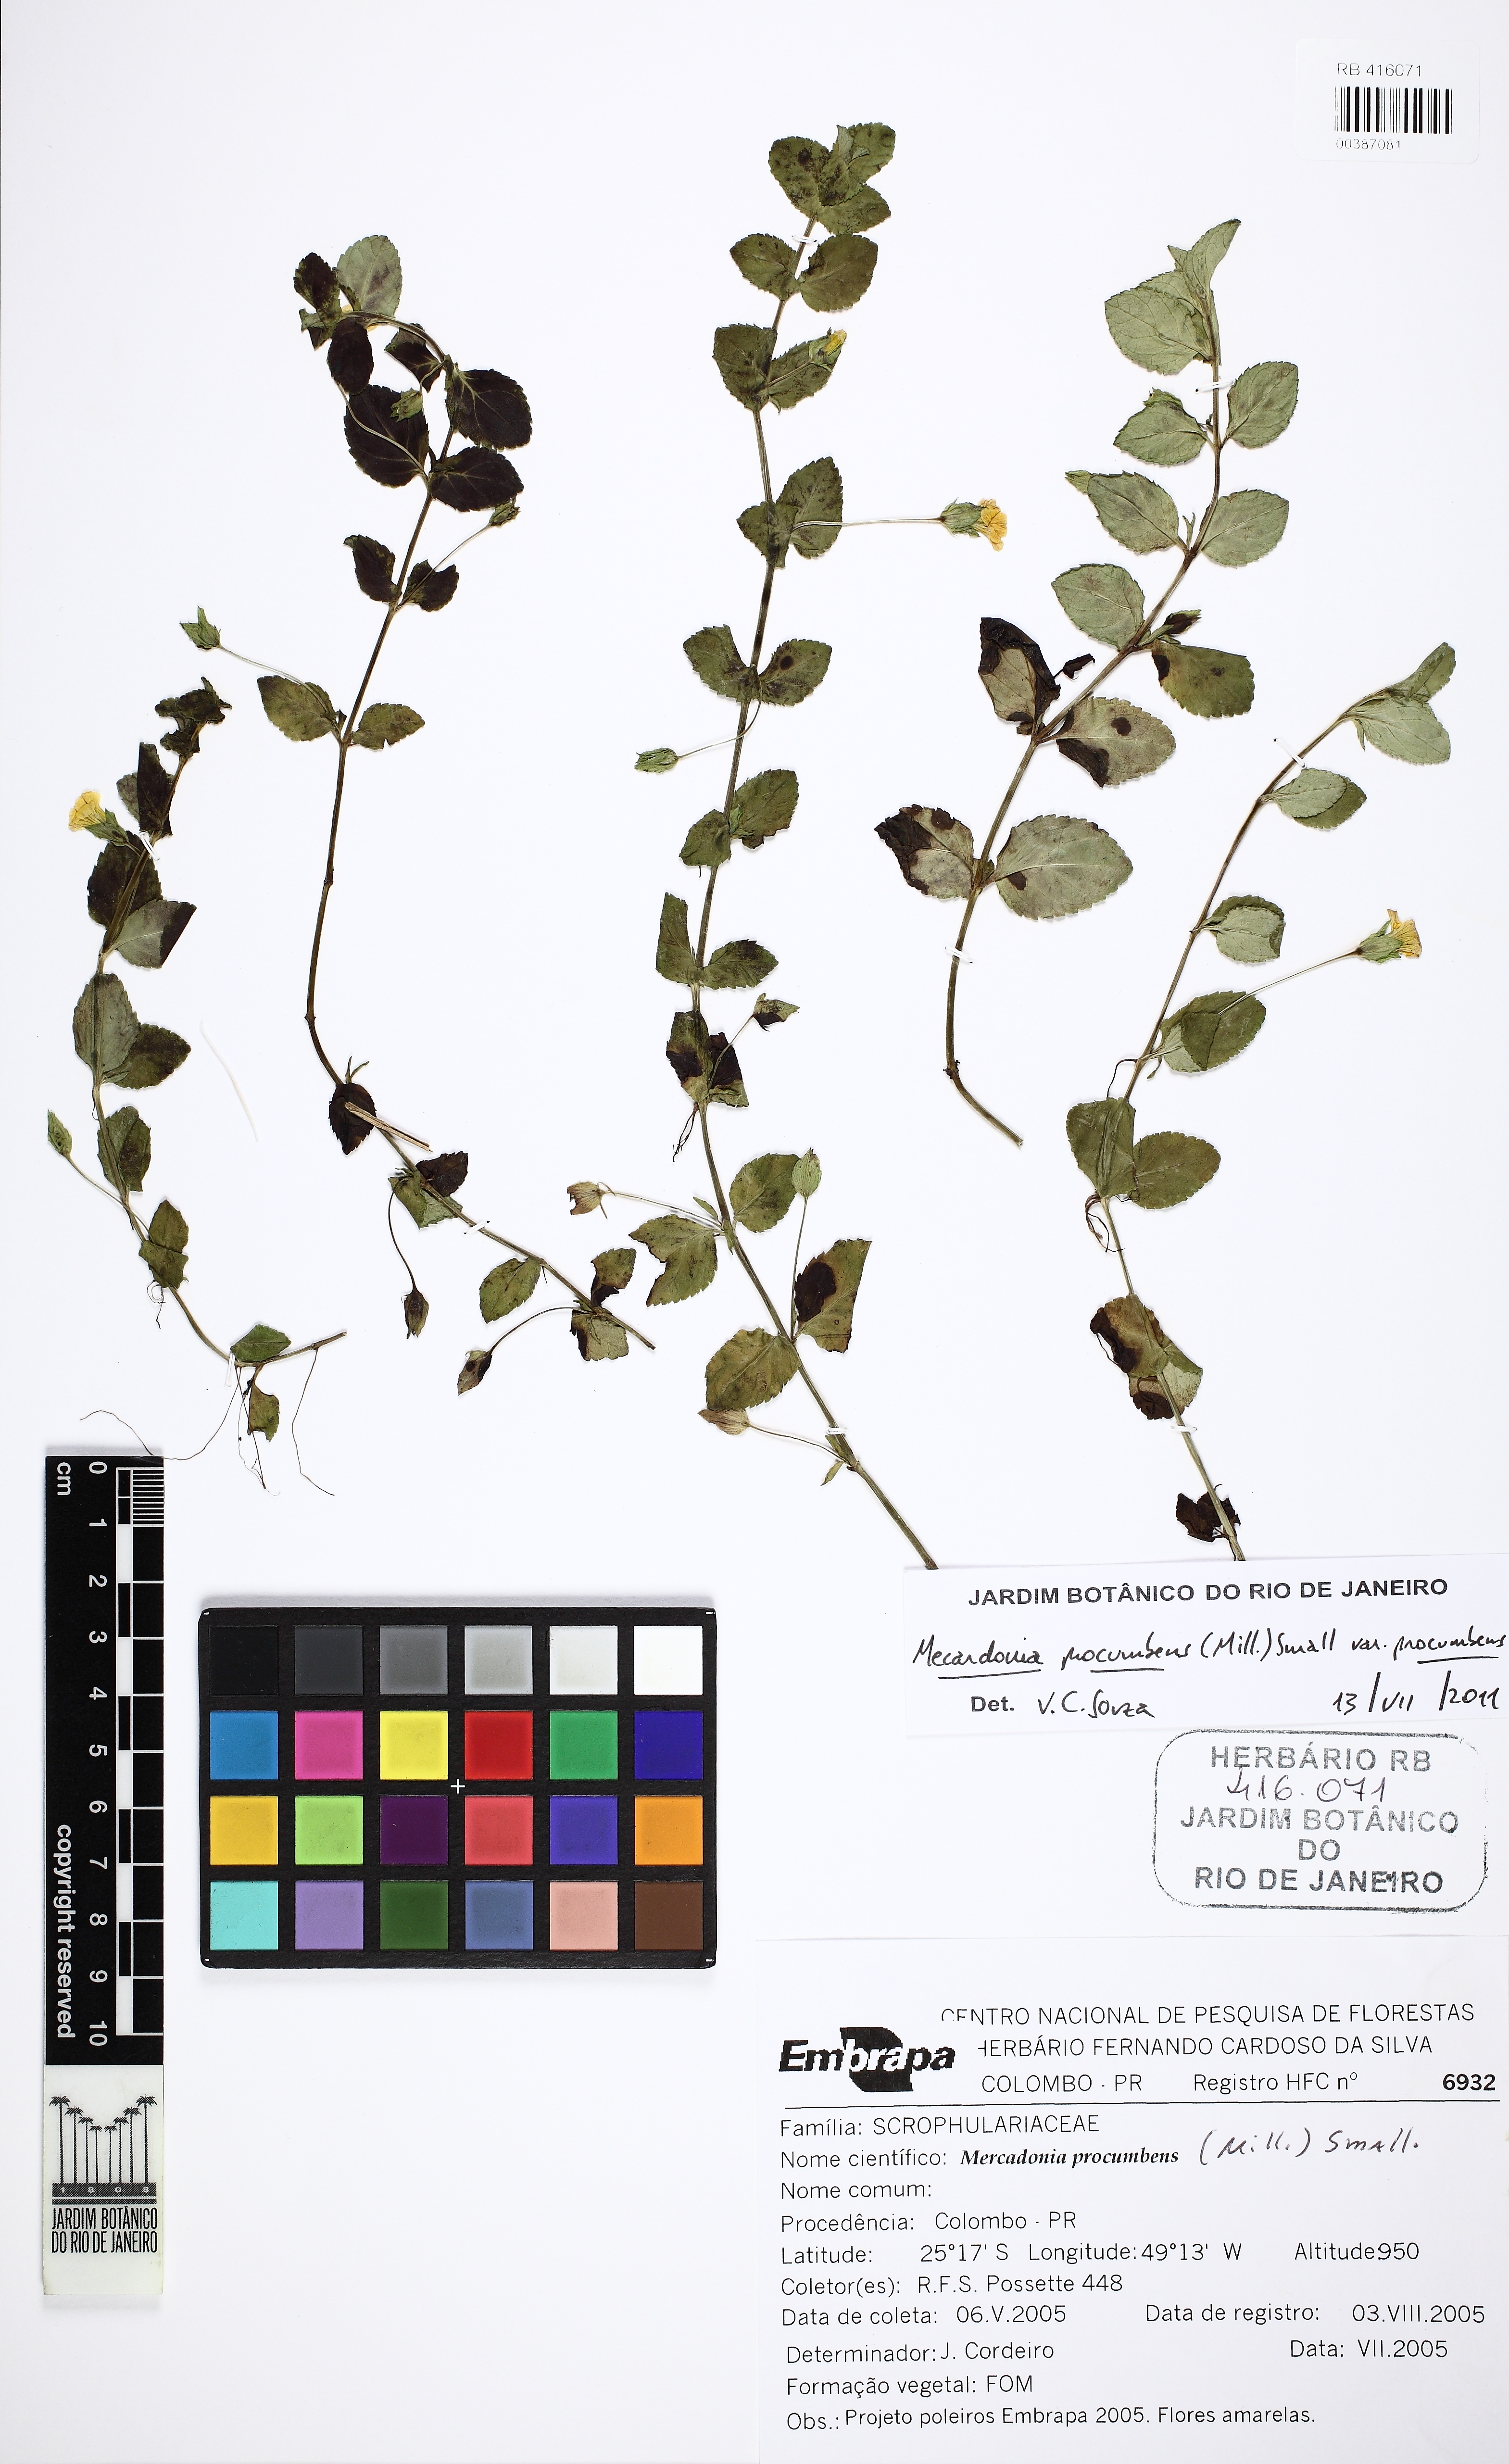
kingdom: Plantae
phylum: Tracheophyta
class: Magnoliopsida
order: Lamiales
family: Plantaginaceae
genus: Mecardonia
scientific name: Mecardonia procumbens
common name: Baby jump-up
